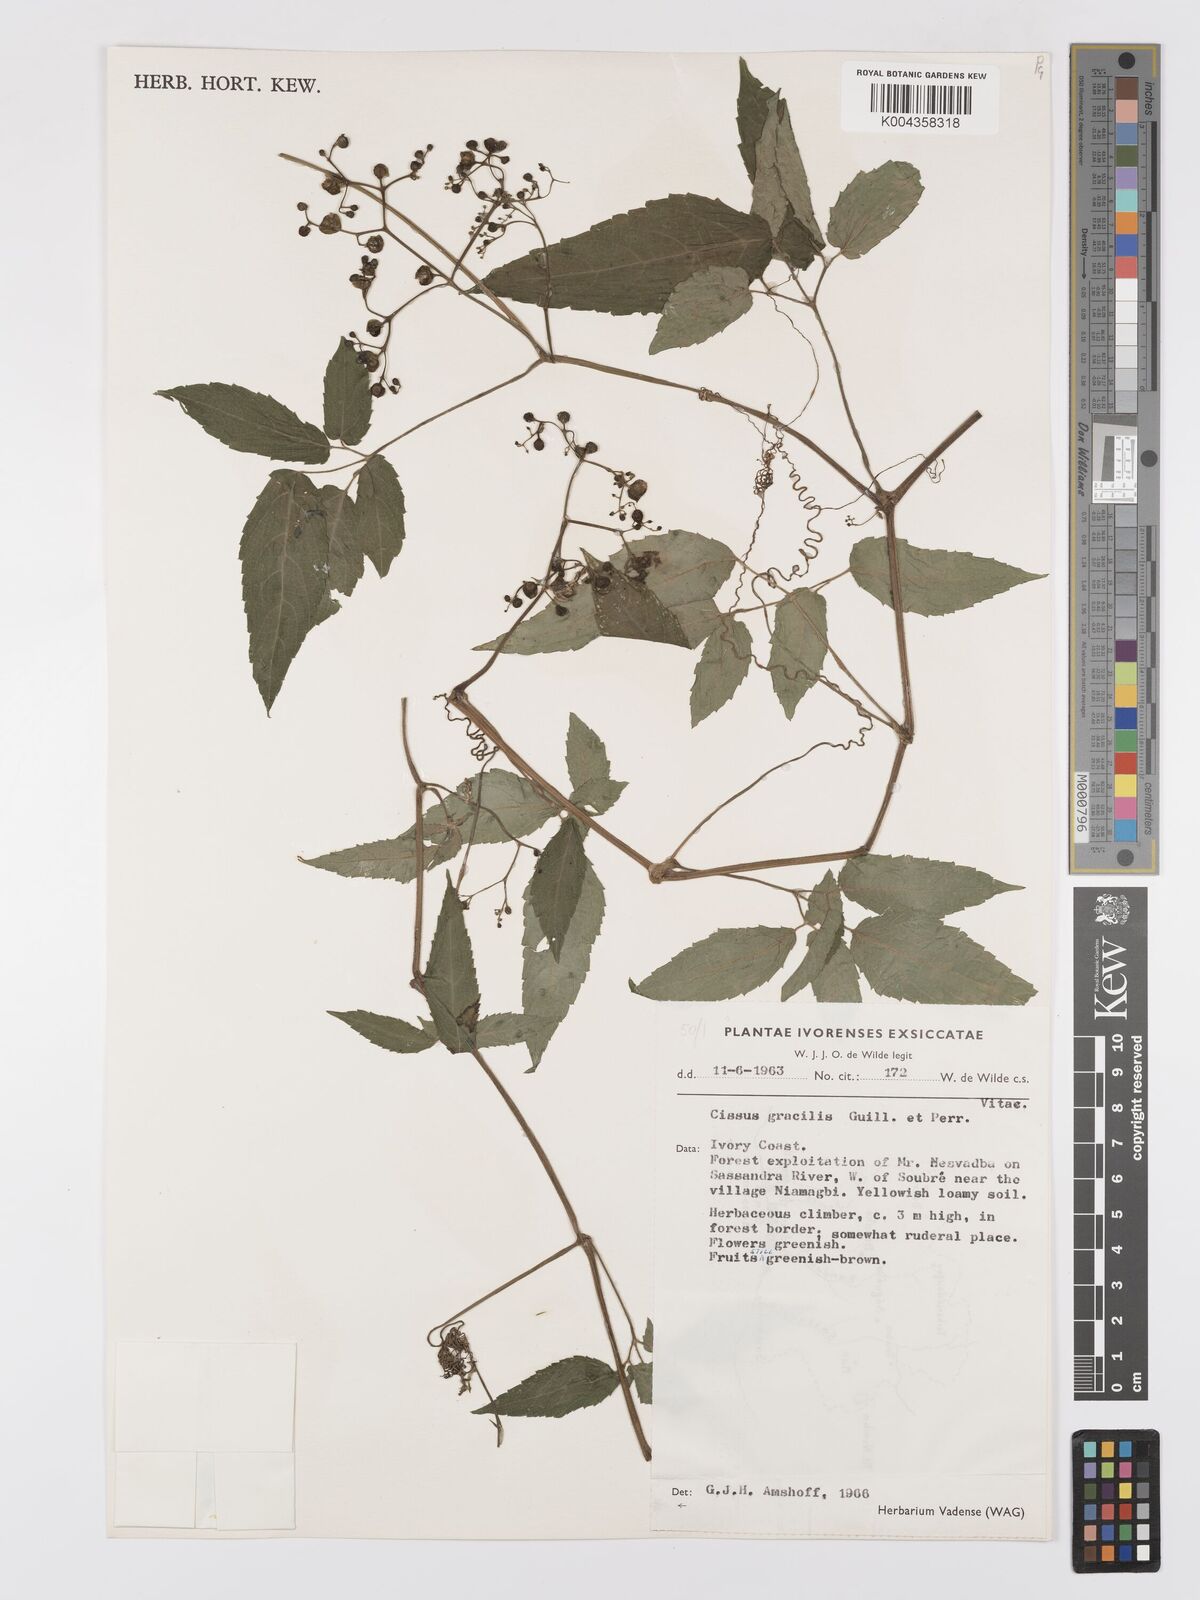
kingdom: Plantae
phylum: Tracheophyta
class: Magnoliopsida
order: Vitales
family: Vitaceae
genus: Afrocayratia
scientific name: Afrocayratia gracilis
